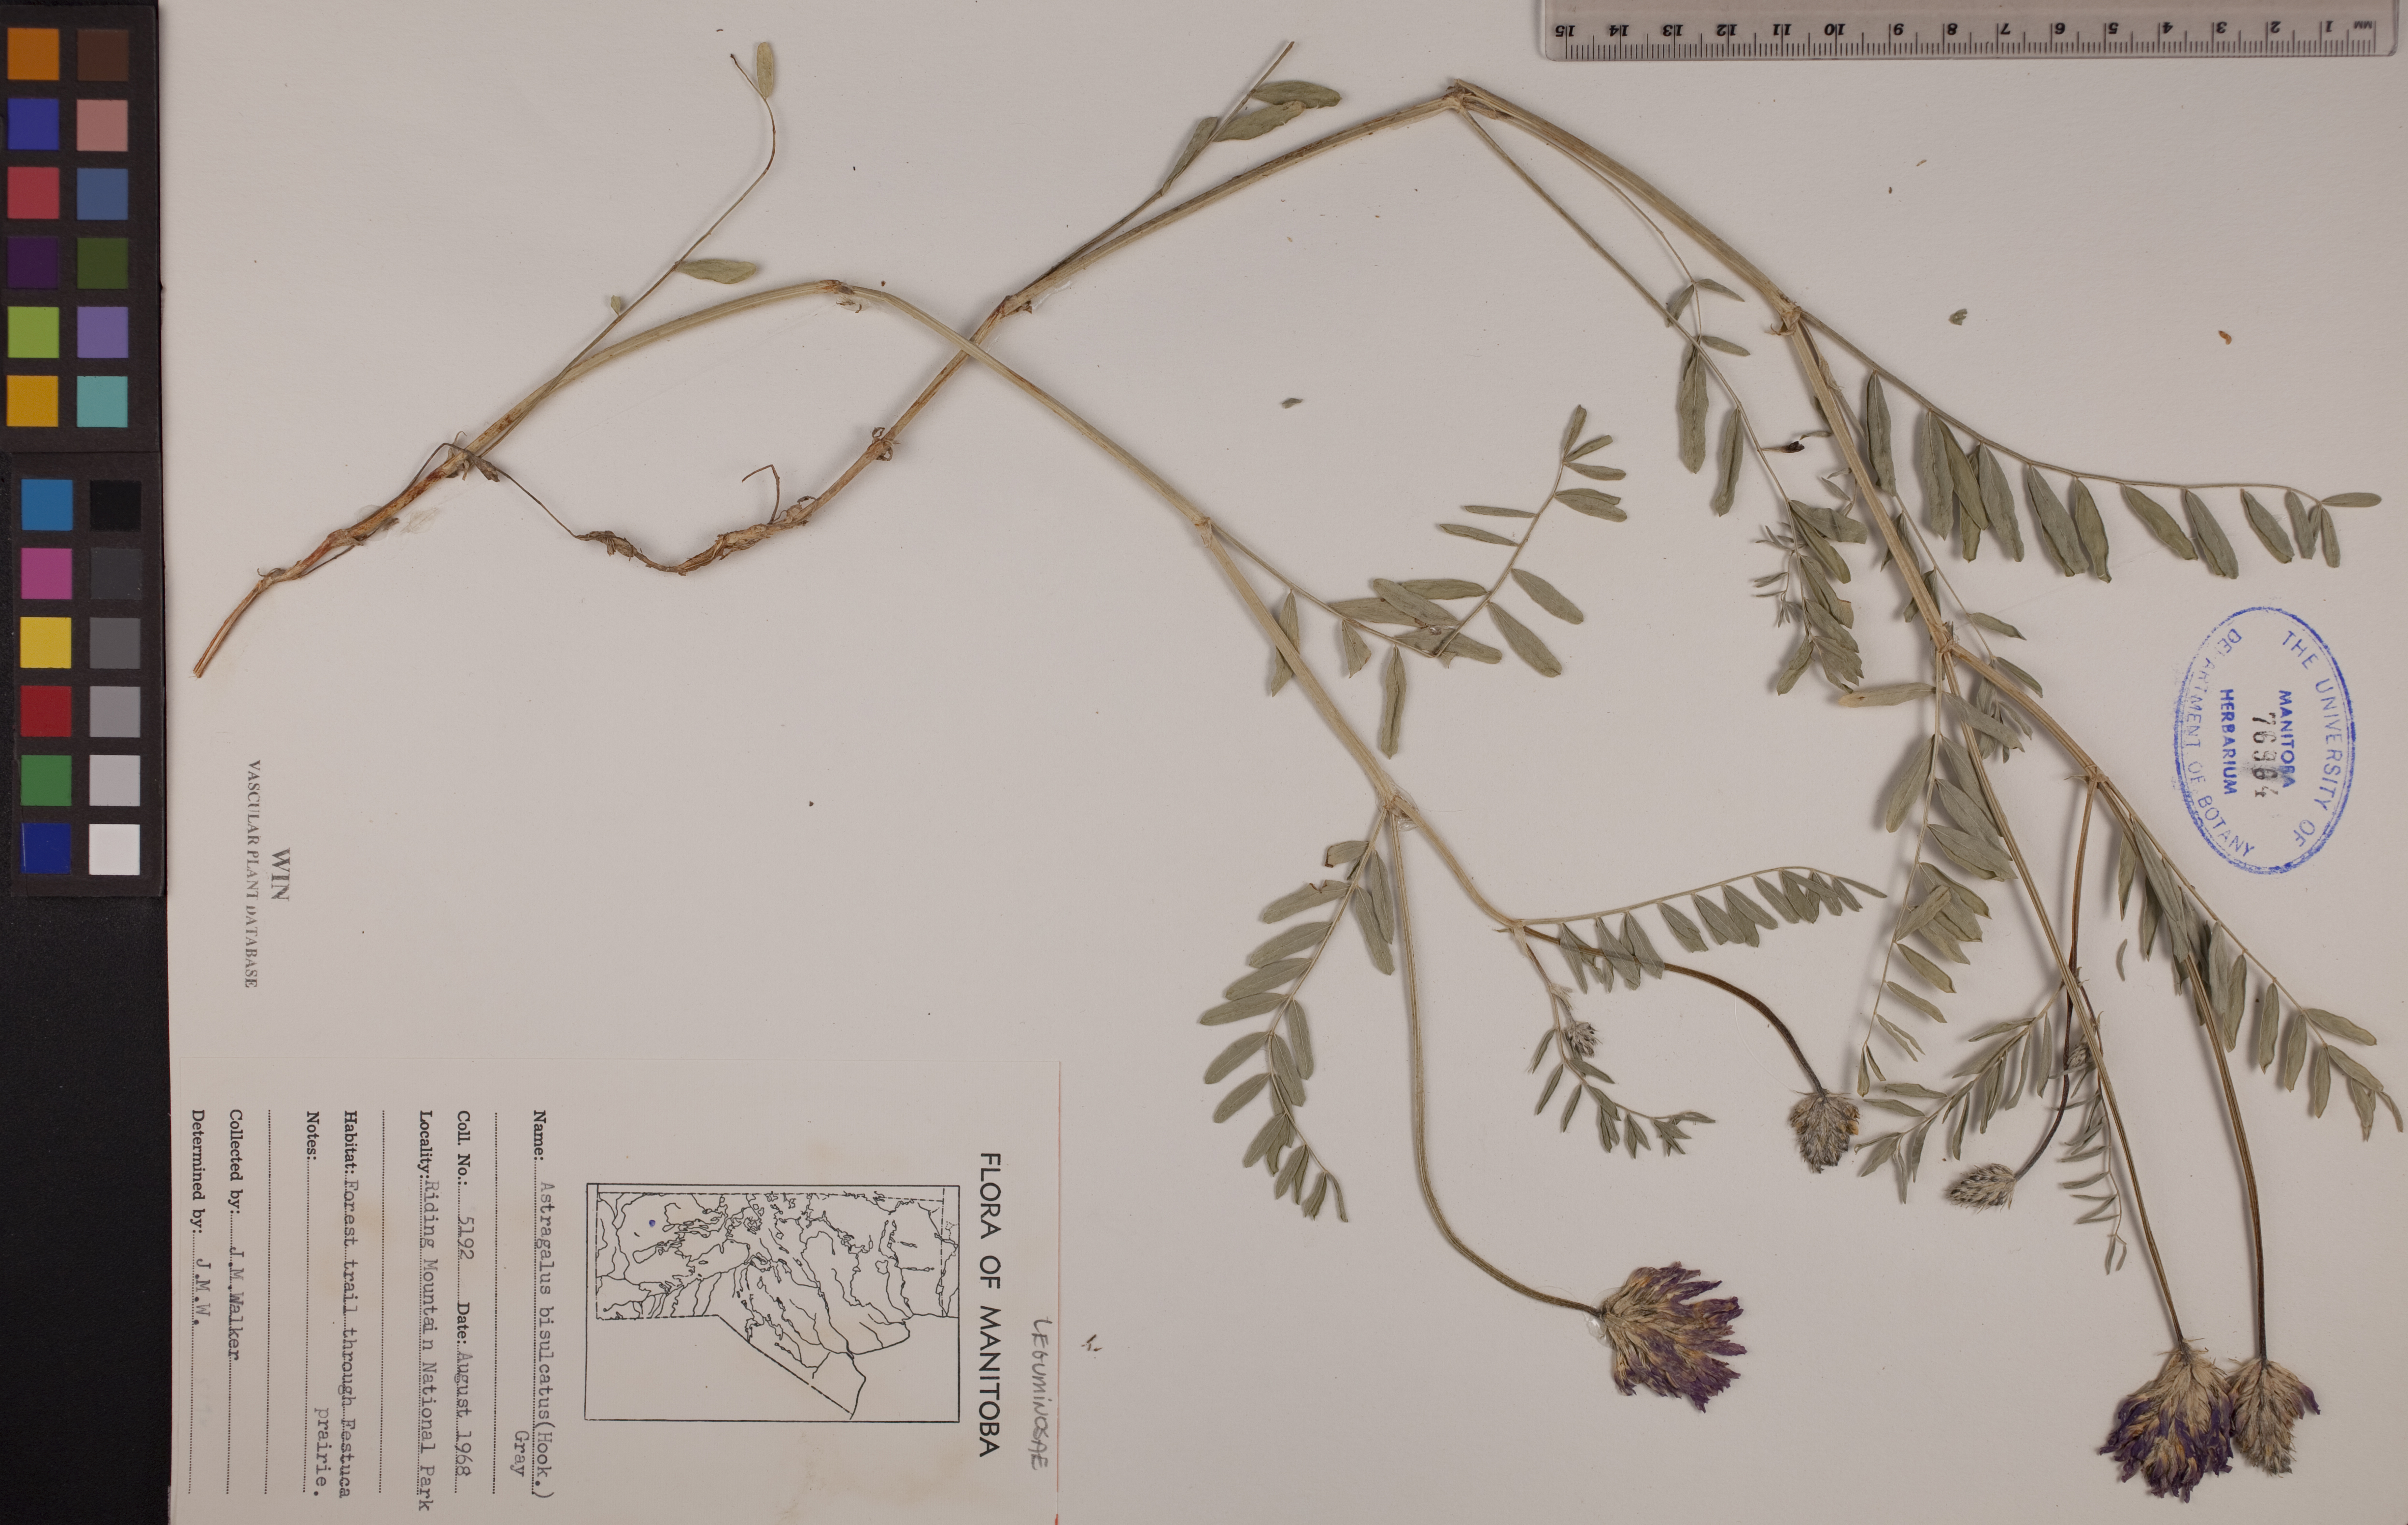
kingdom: Plantae
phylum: Tracheophyta
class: Magnoliopsida
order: Fabales
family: Fabaceae
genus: Astragalus
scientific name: Astragalus bisulcatus
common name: Two-groove milk-vetch
